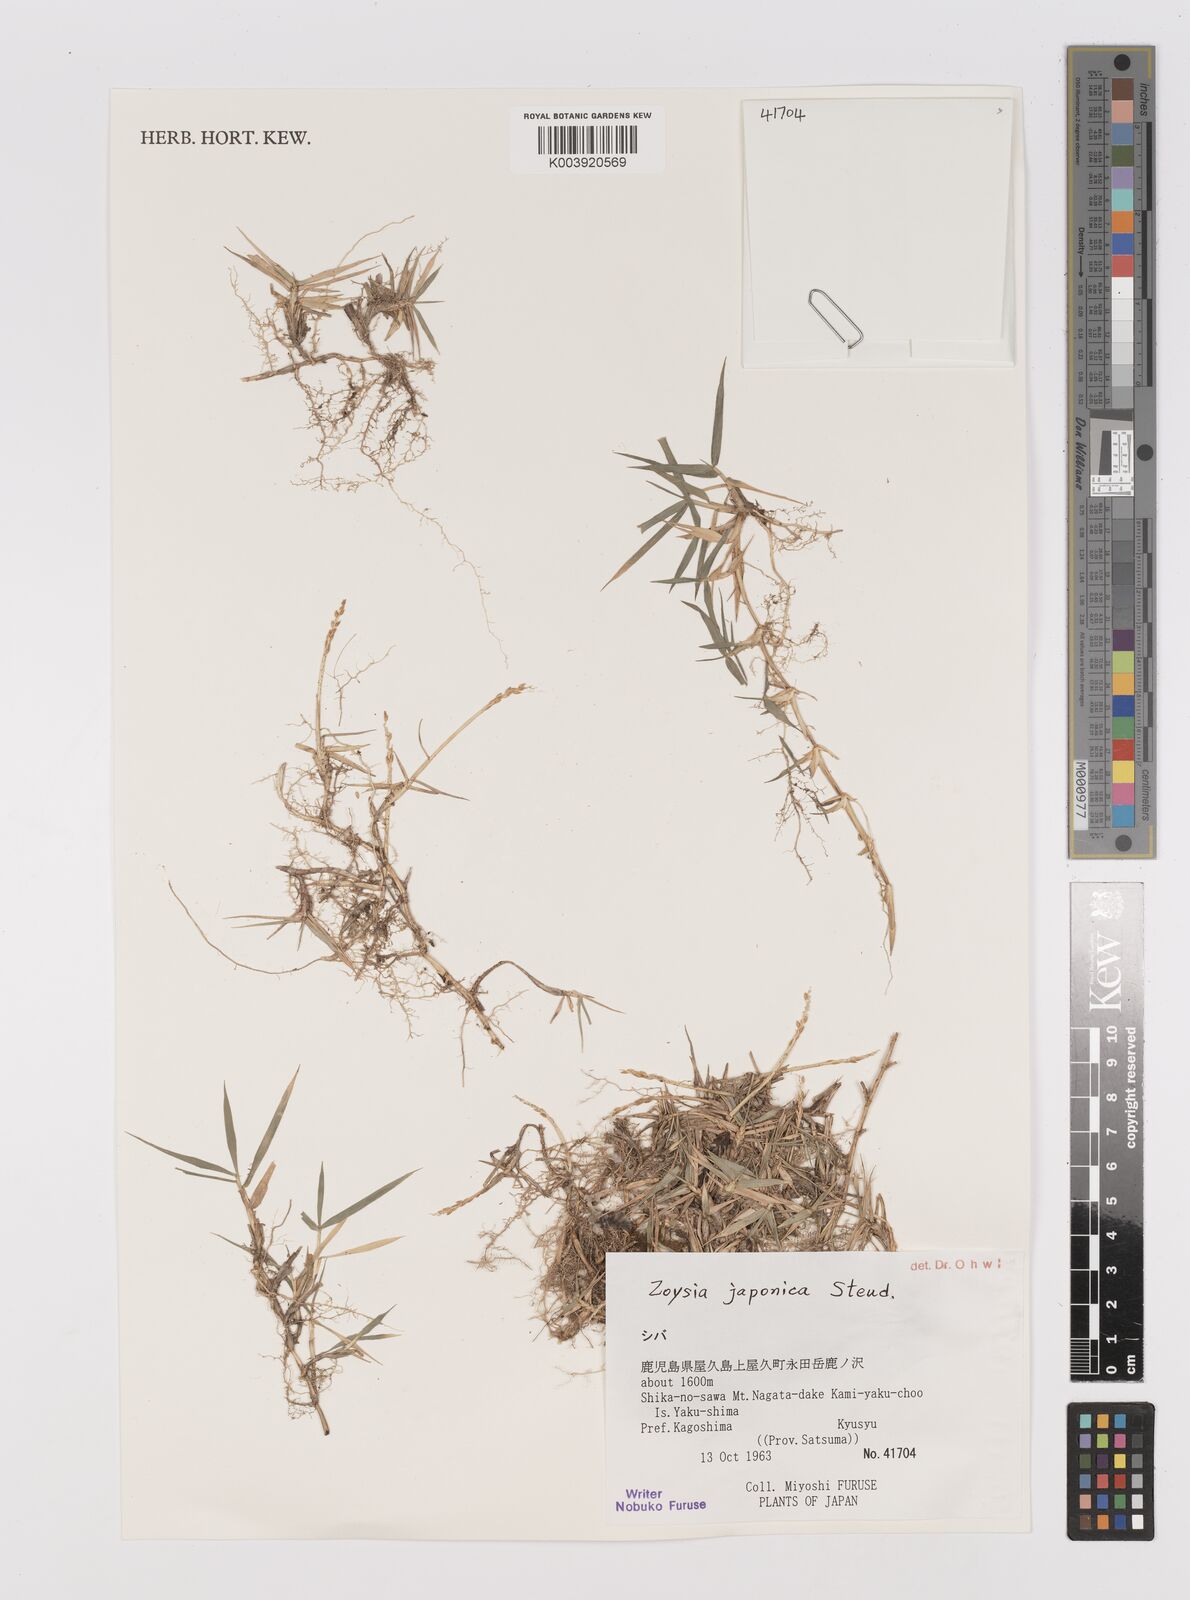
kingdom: Plantae
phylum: Tracheophyta
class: Liliopsida
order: Poales
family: Poaceae
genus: Zoysia
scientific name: Zoysia japonica
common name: Korean lawngrass
